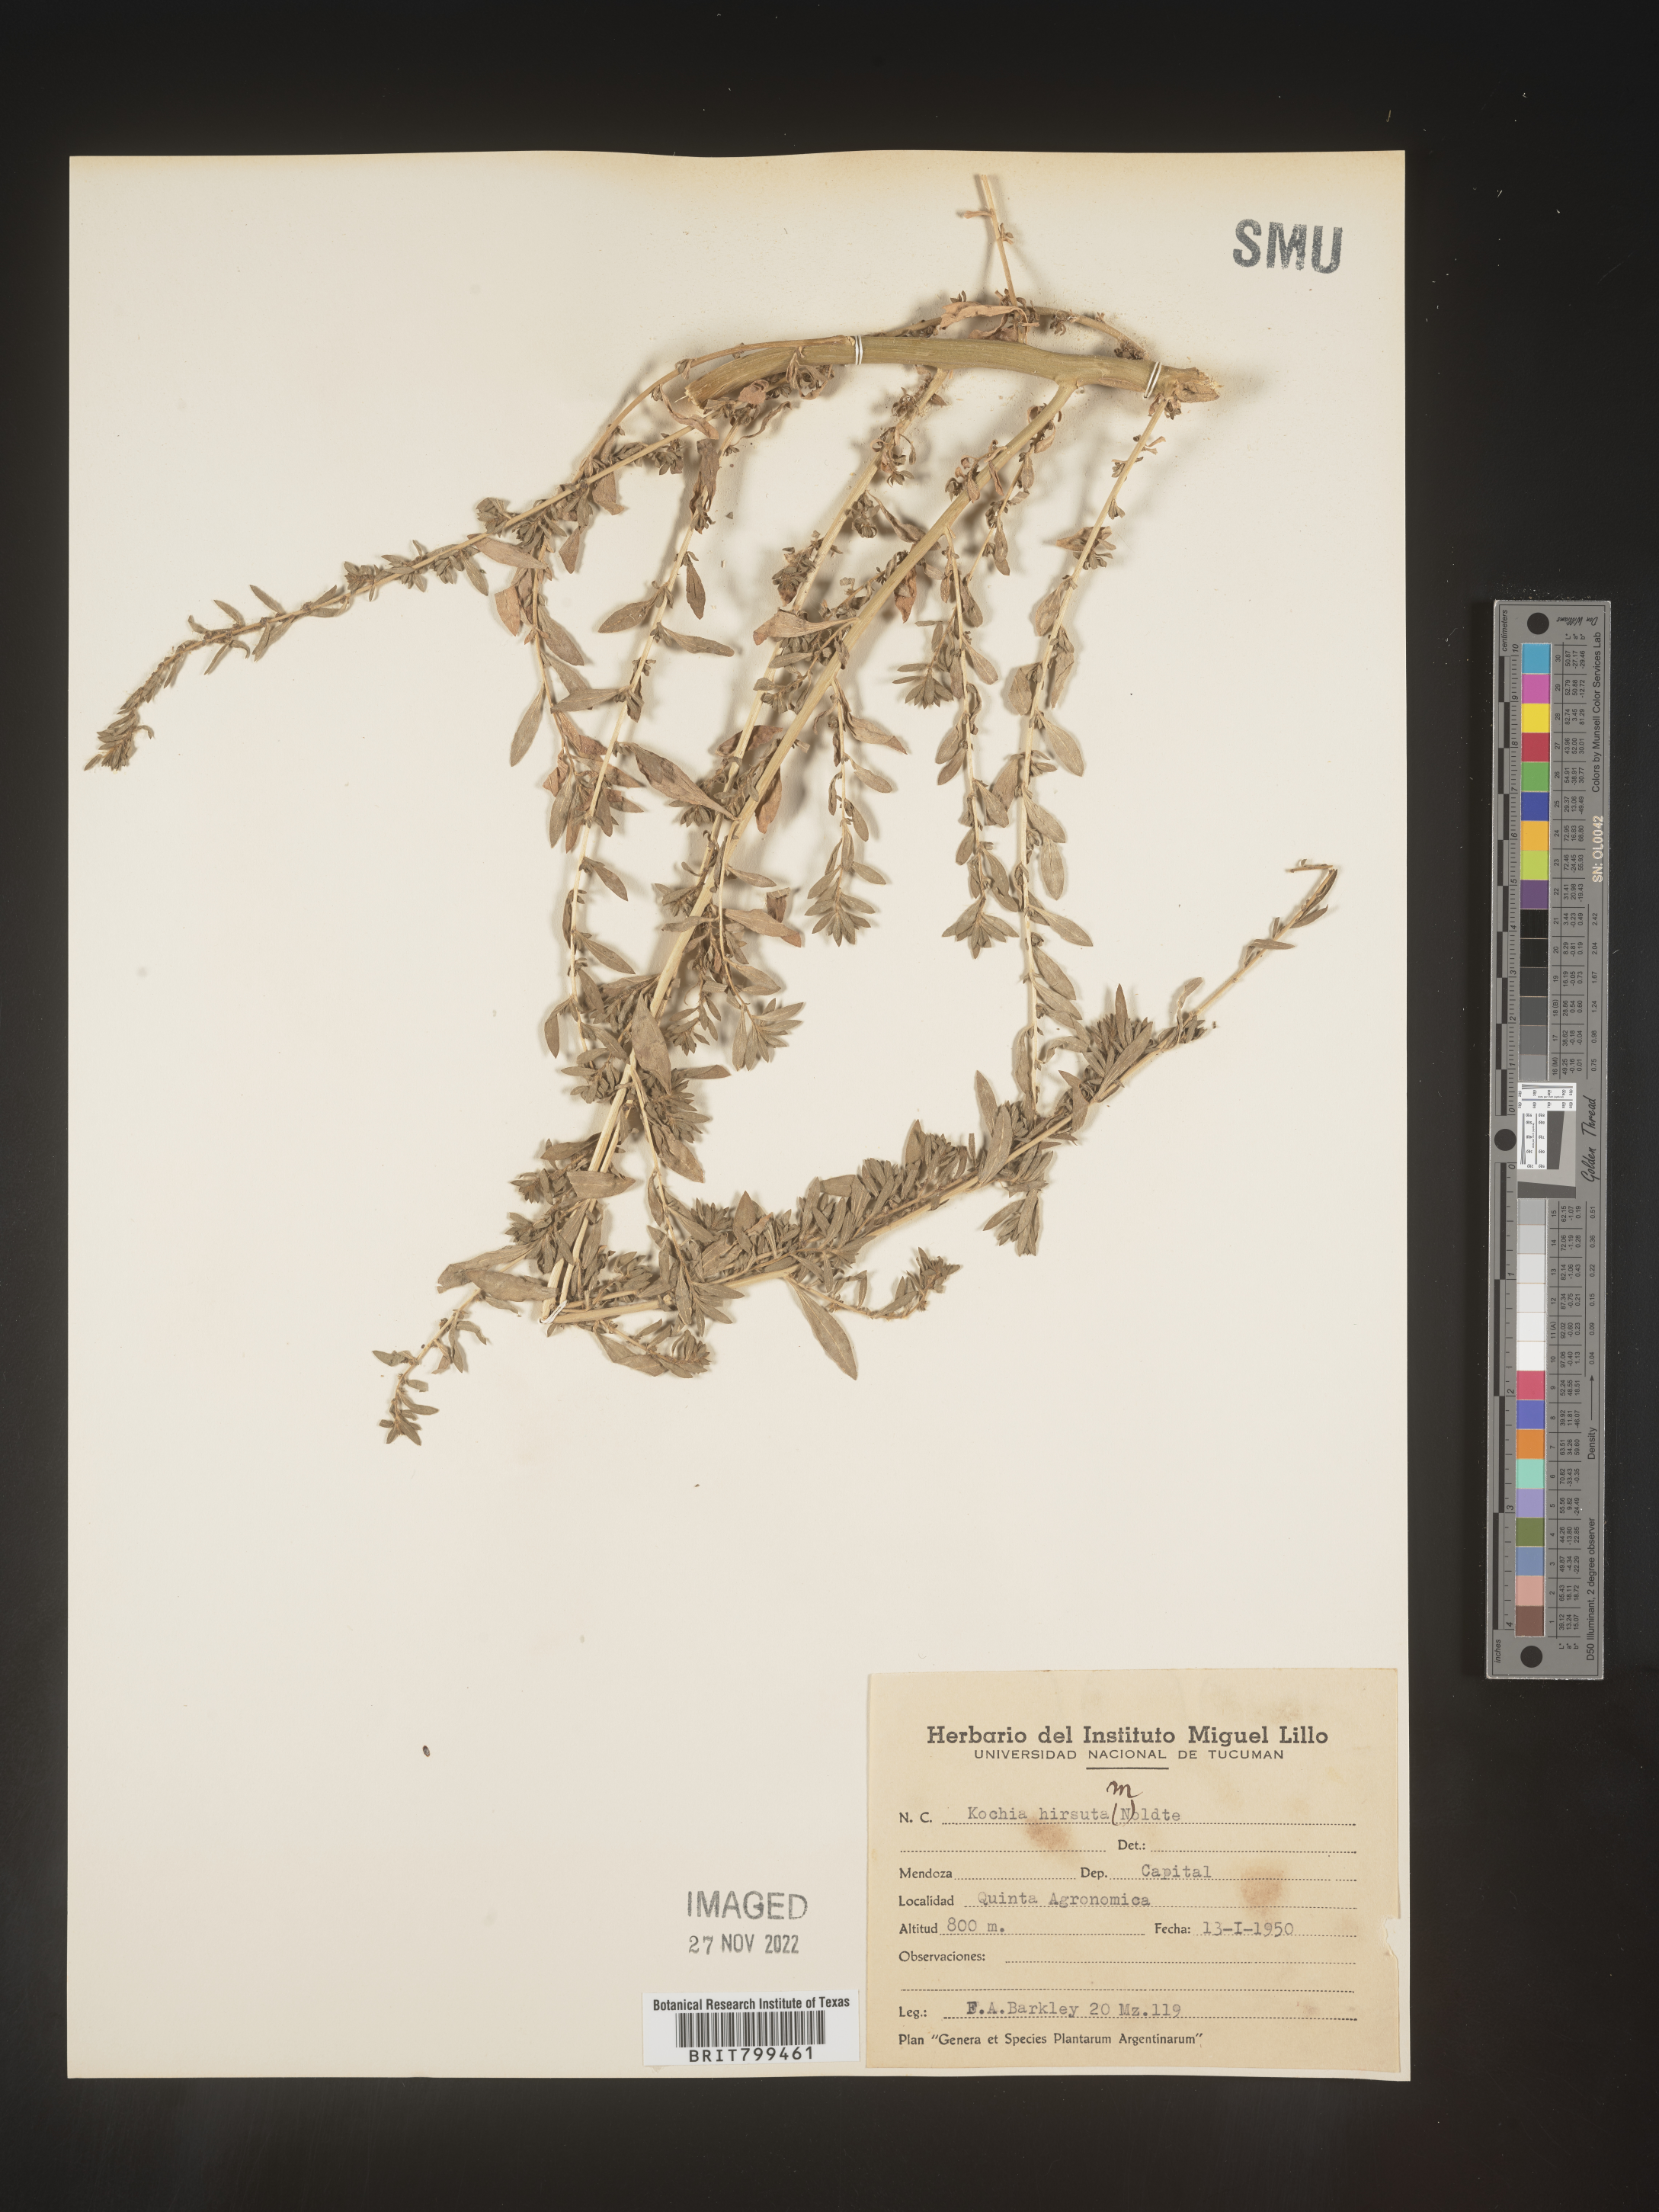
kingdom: Plantae
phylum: Tracheophyta
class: Magnoliopsida
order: Caryophyllales
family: Amaranthaceae
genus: Bassia
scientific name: Bassia
